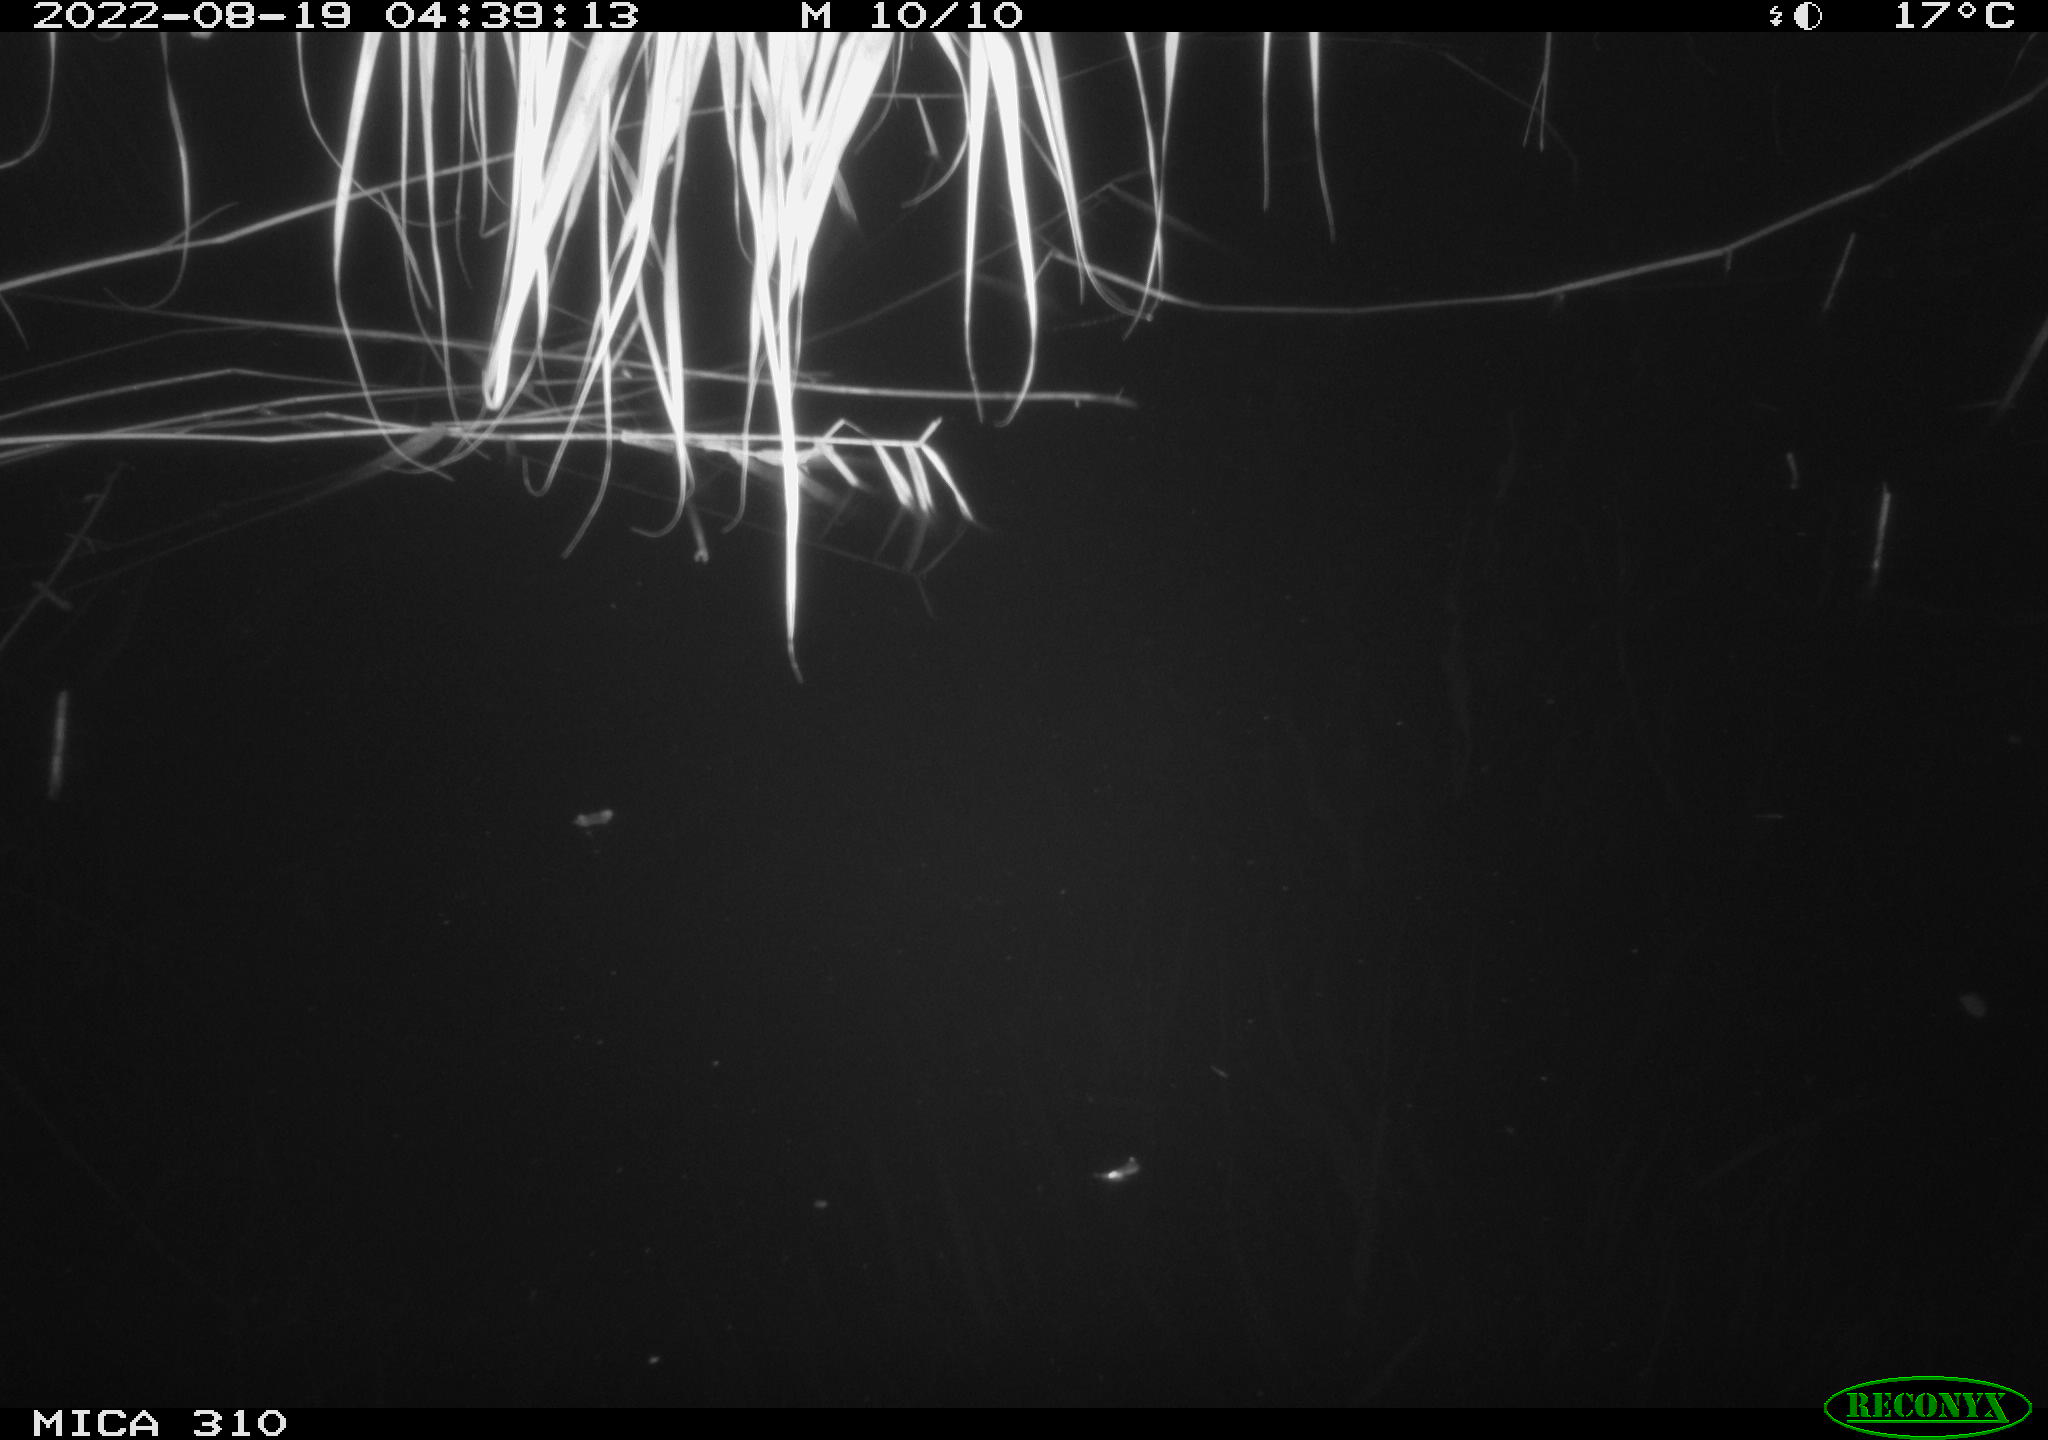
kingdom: Animalia
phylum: Chordata
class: Aves
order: Anseriformes
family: Anatidae
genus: Anas
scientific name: Anas platyrhynchos
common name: Mallard
